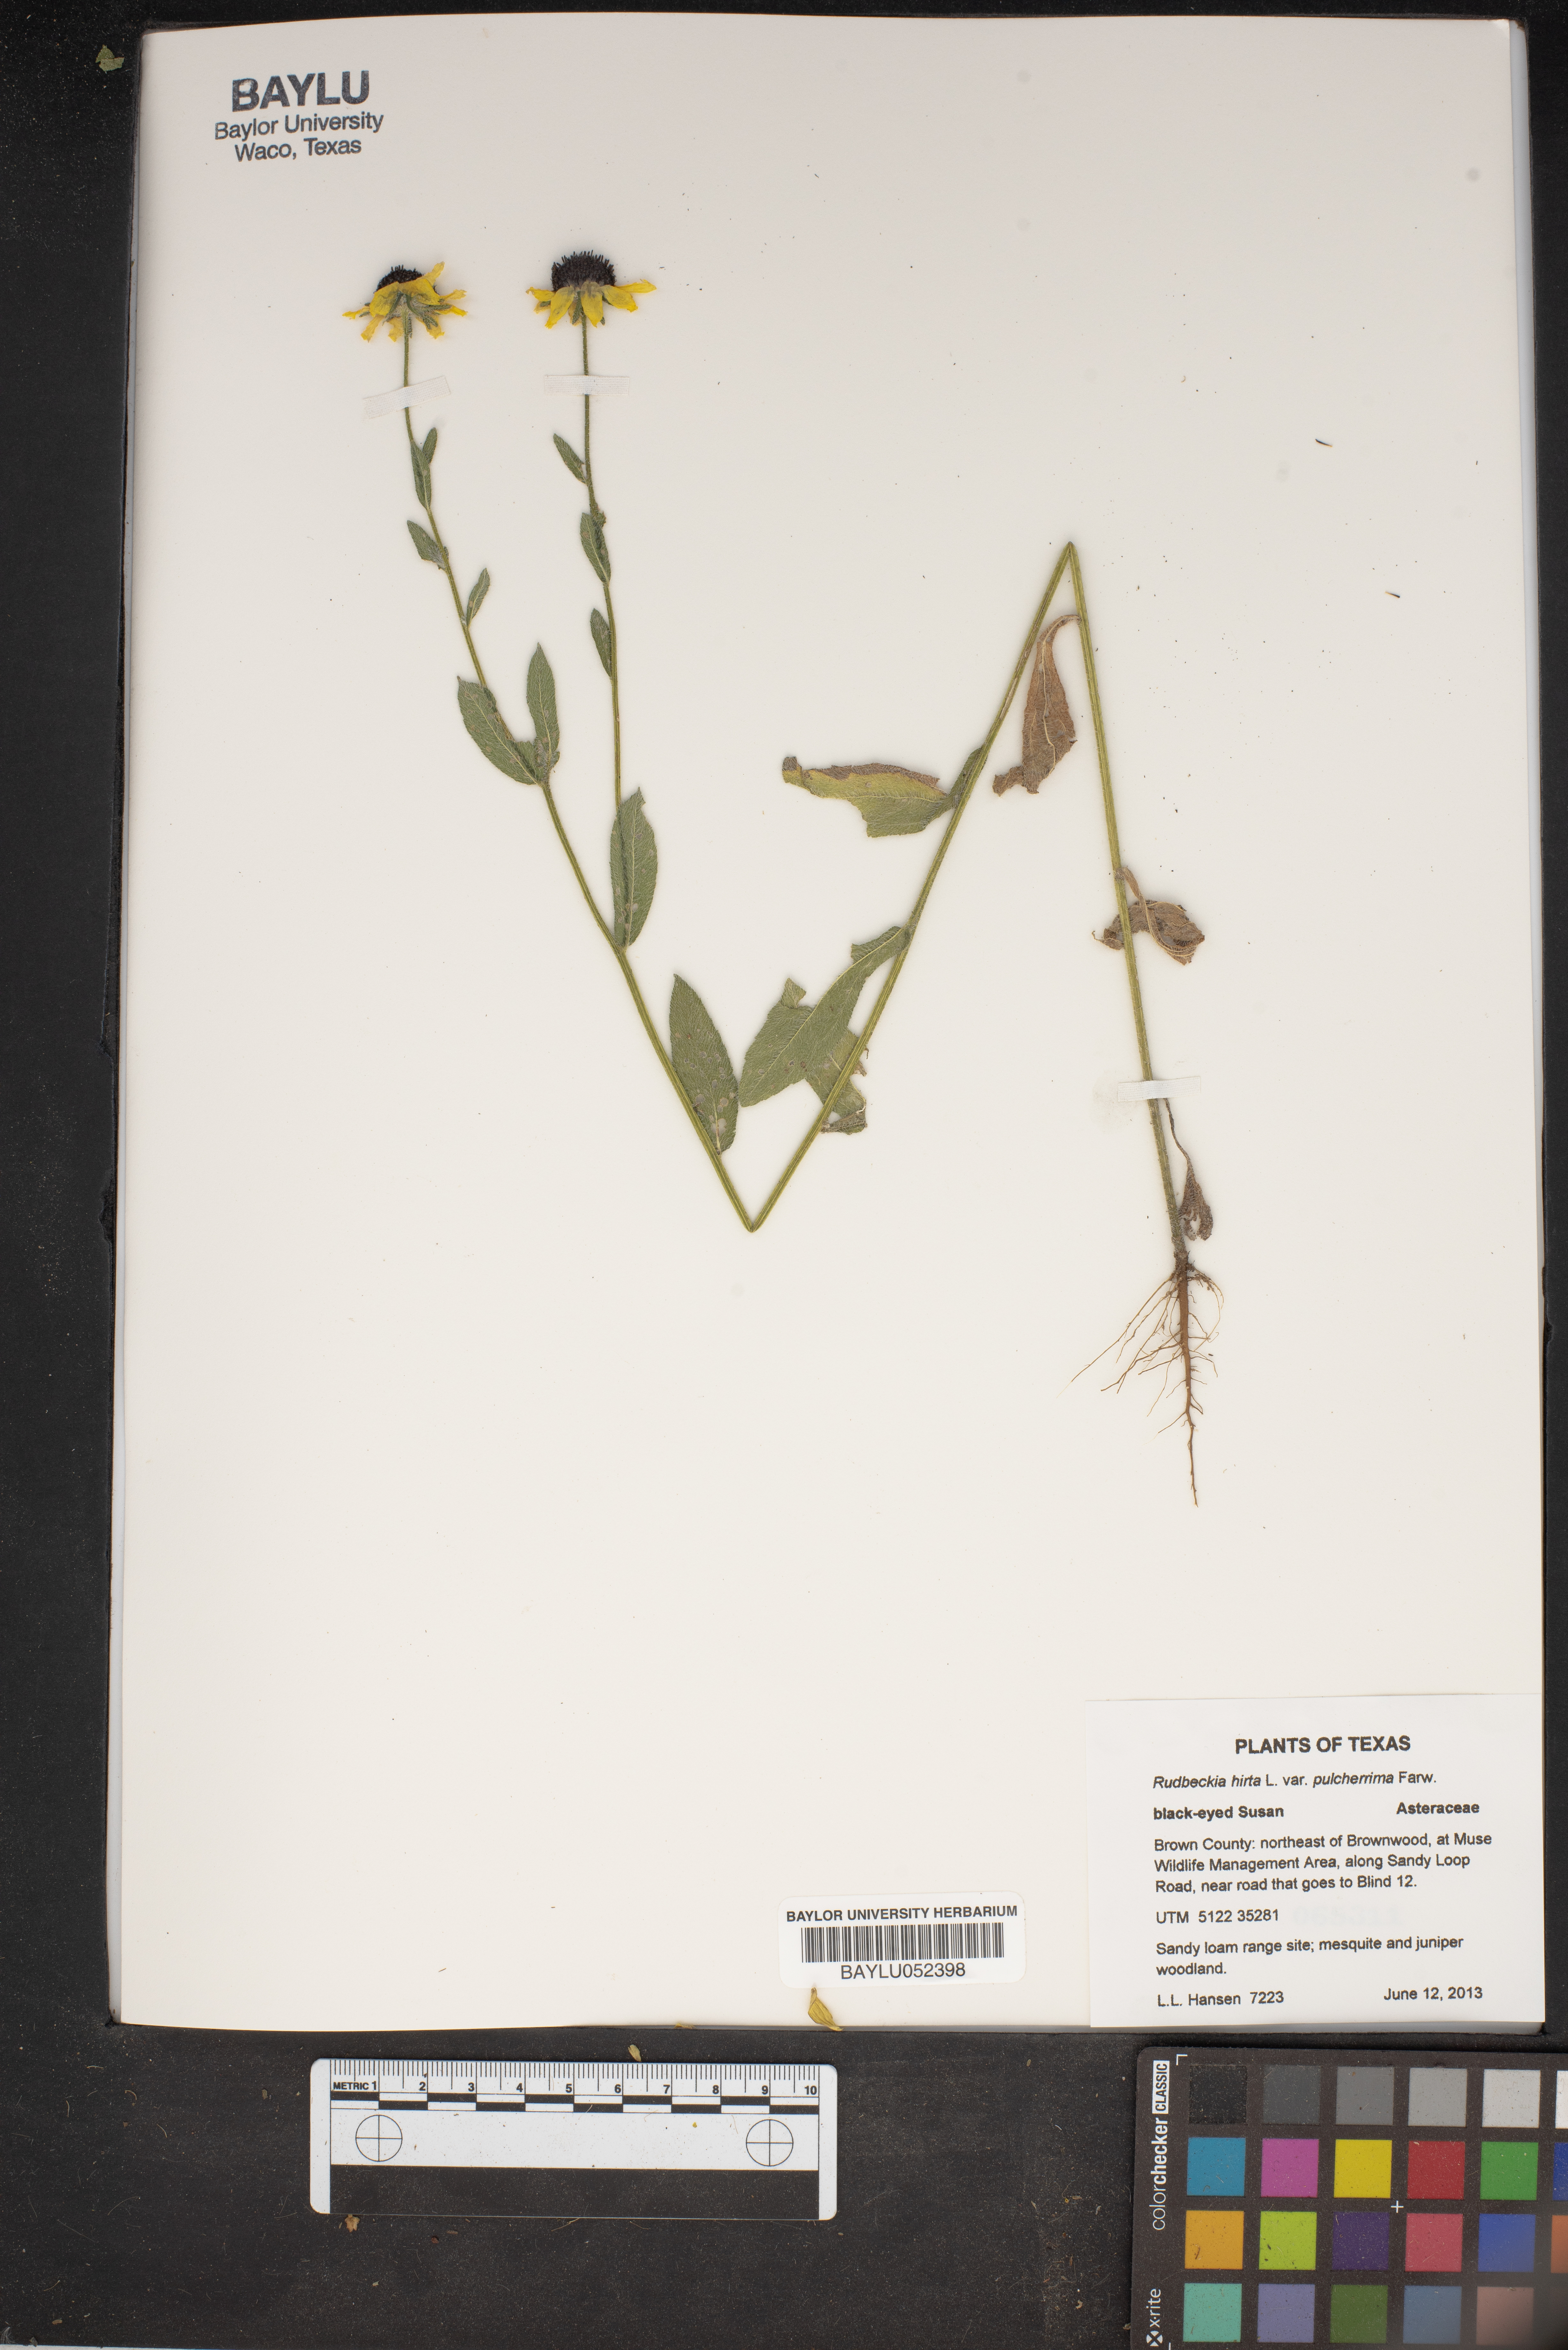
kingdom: Plantae
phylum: Tracheophyta
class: Magnoliopsida
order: Asterales
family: Asteraceae
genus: Rudbeckia
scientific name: Rudbeckia hirta
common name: Black-eyed-susan
